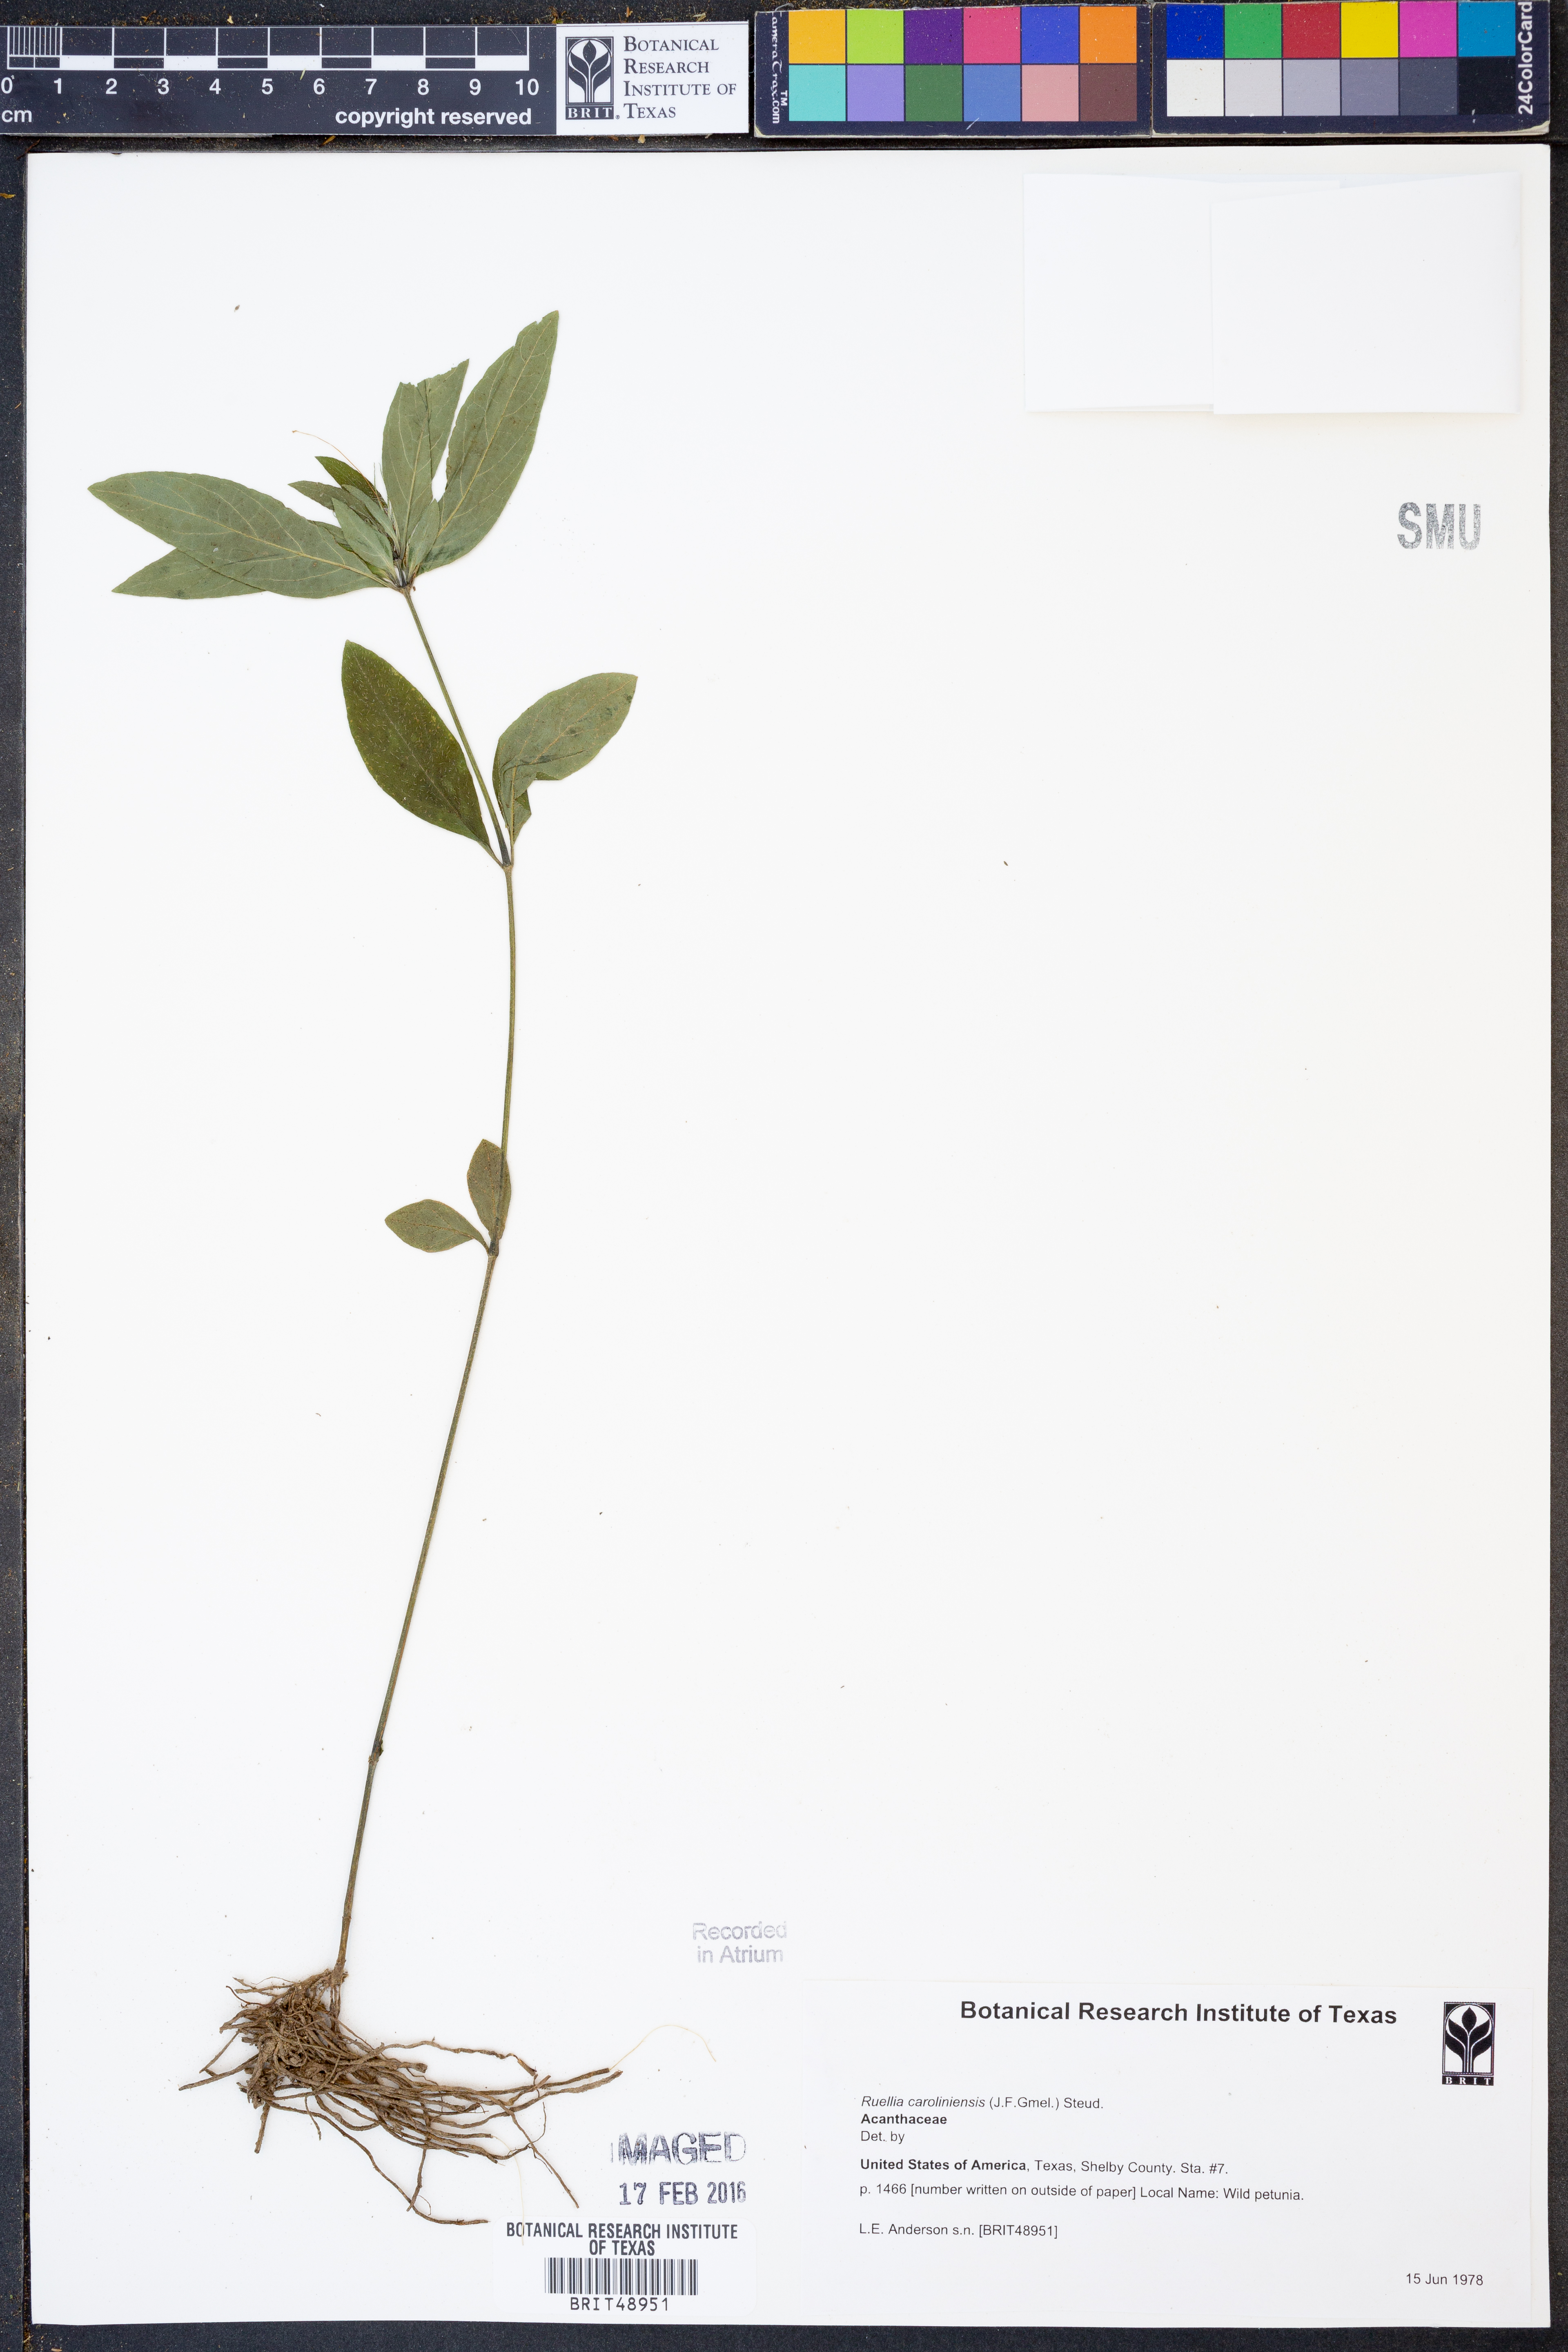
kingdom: Plantae
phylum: Tracheophyta
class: Magnoliopsida
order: Lamiales
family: Acanthaceae
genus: Ruellia
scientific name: Ruellia caroliniensis
